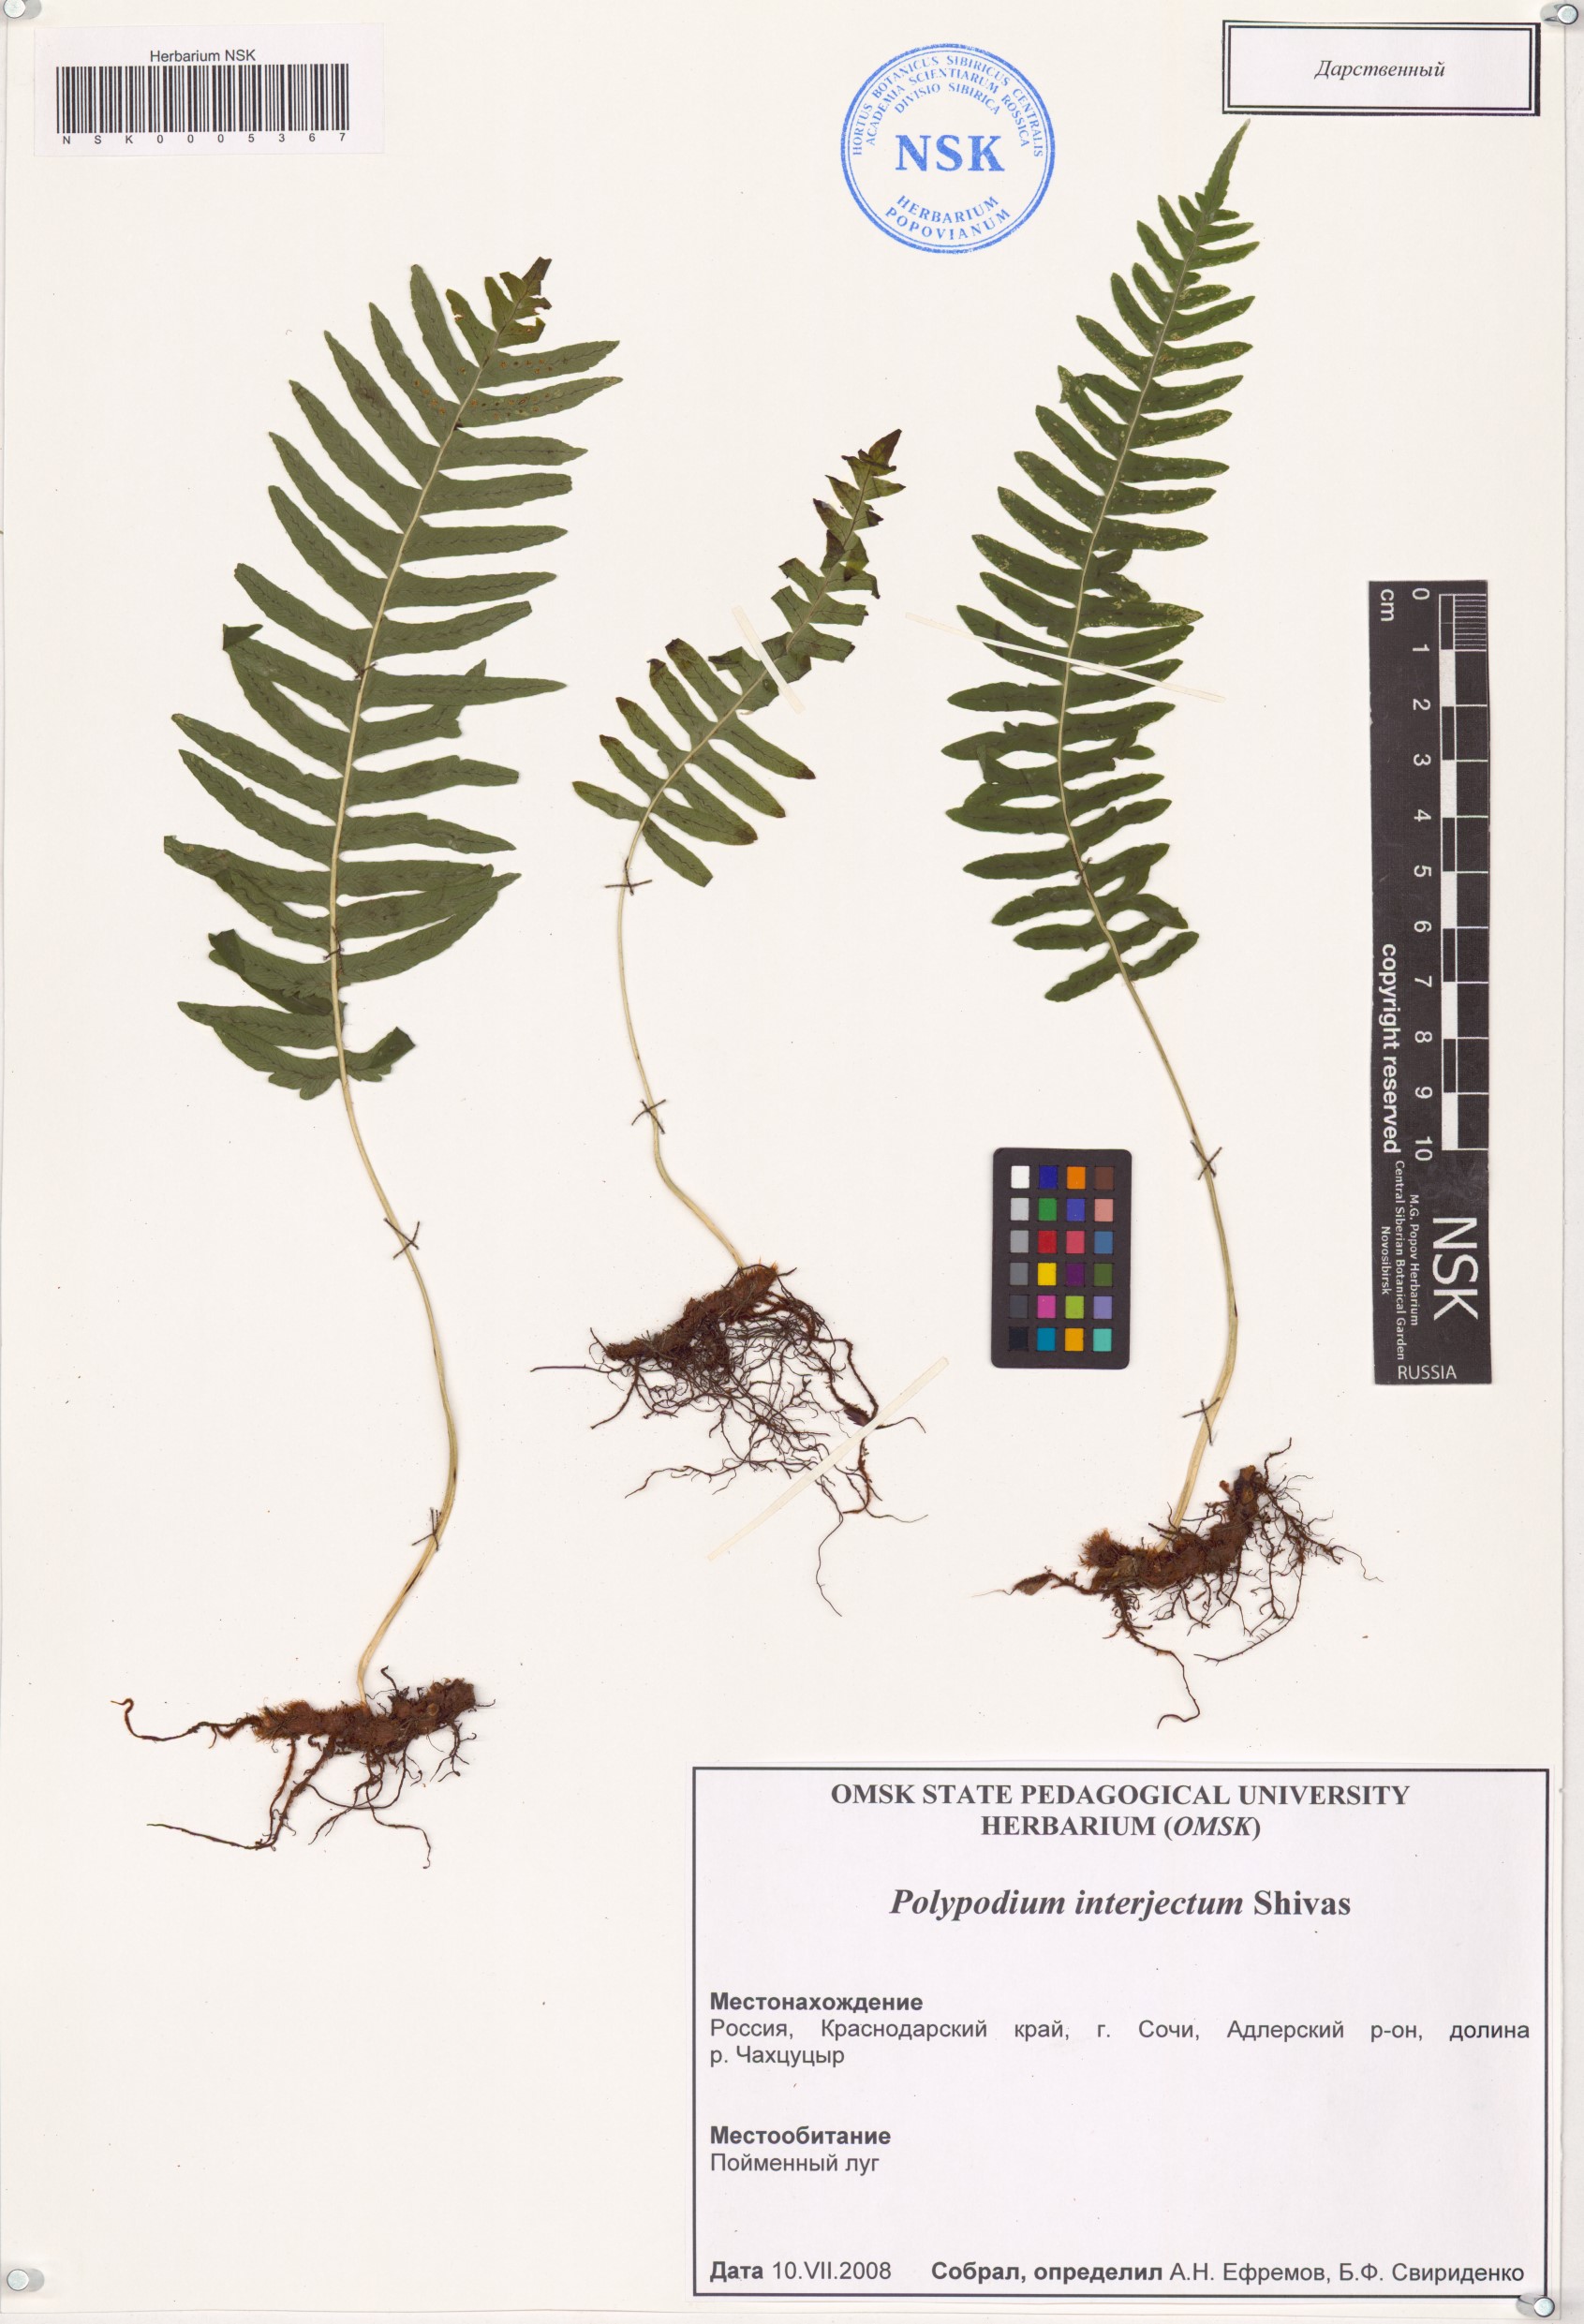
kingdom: Plantae
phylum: Tracheophyta
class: Polypodiopsida
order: Polypodiales
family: Polypodiaceae
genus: Polypodium
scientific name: Polypodium interjectum
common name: Intermediate polypody
